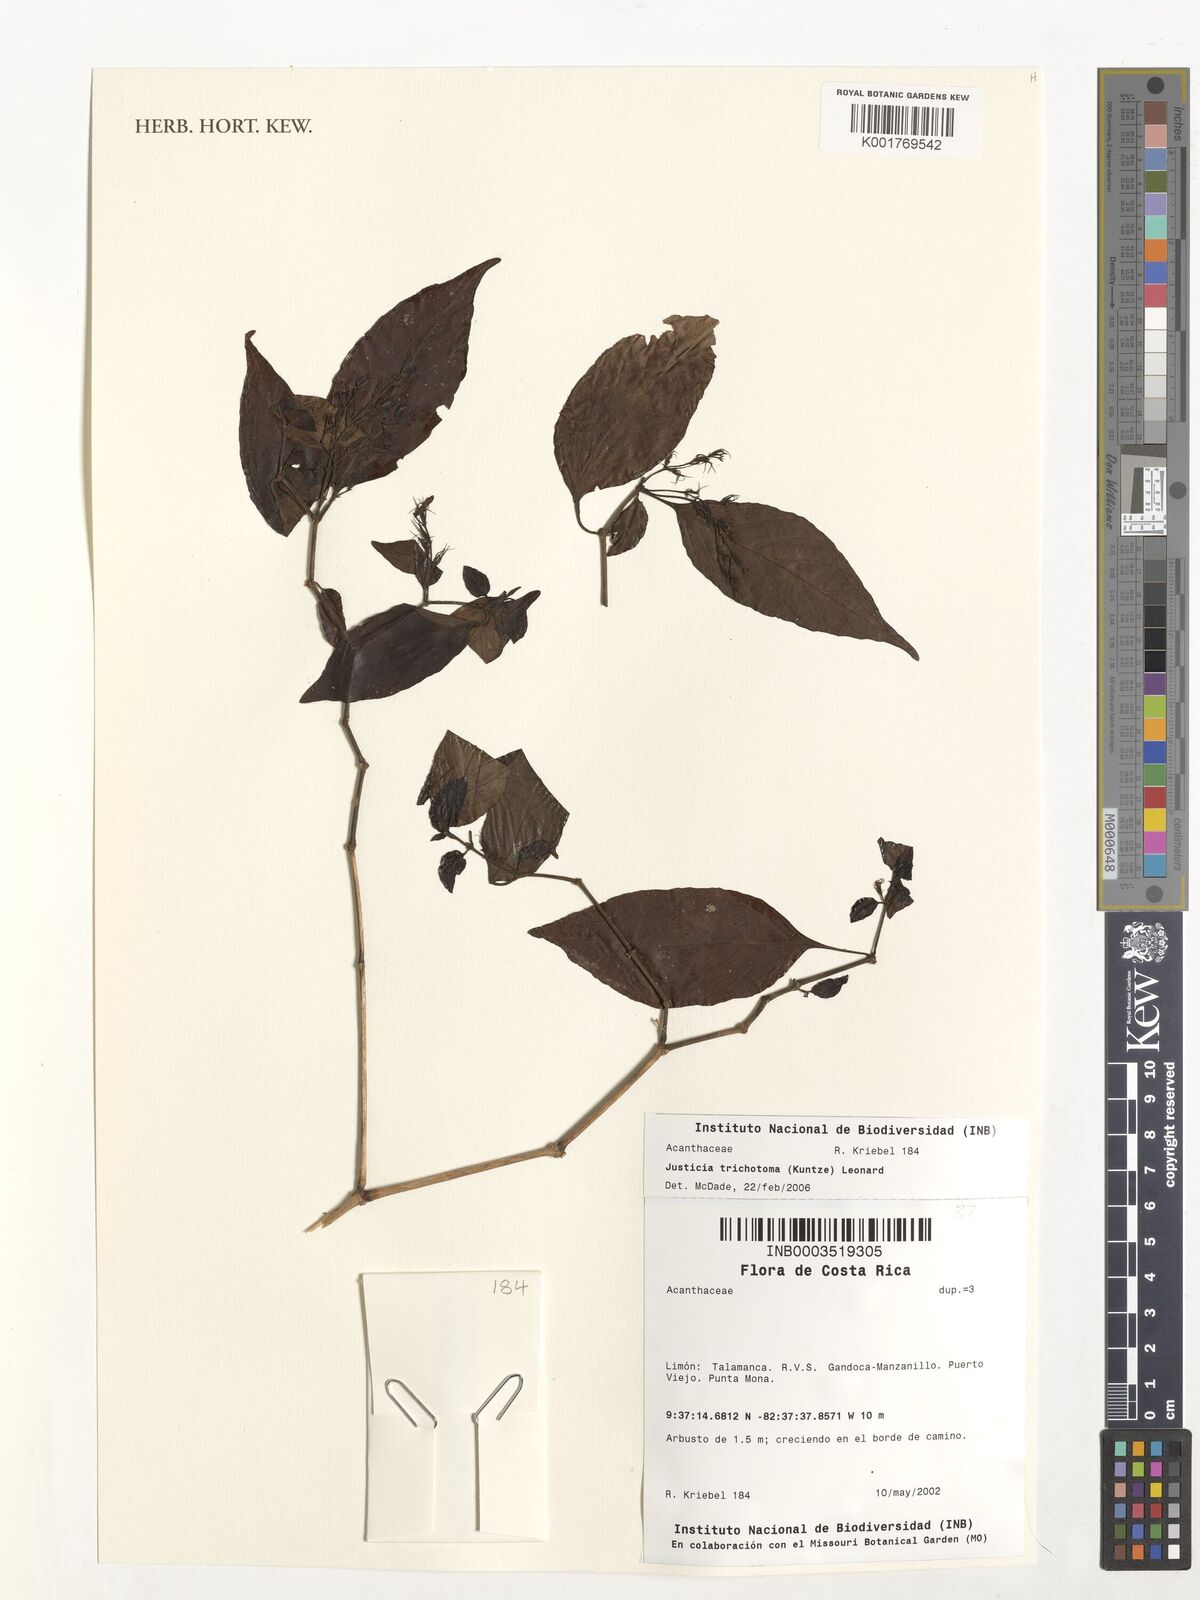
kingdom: Plantae
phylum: Tracheophyta
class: Magnoliopsida
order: Lamiales
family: Acanthaceae
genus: Justicia
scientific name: Justicia trichotoma
